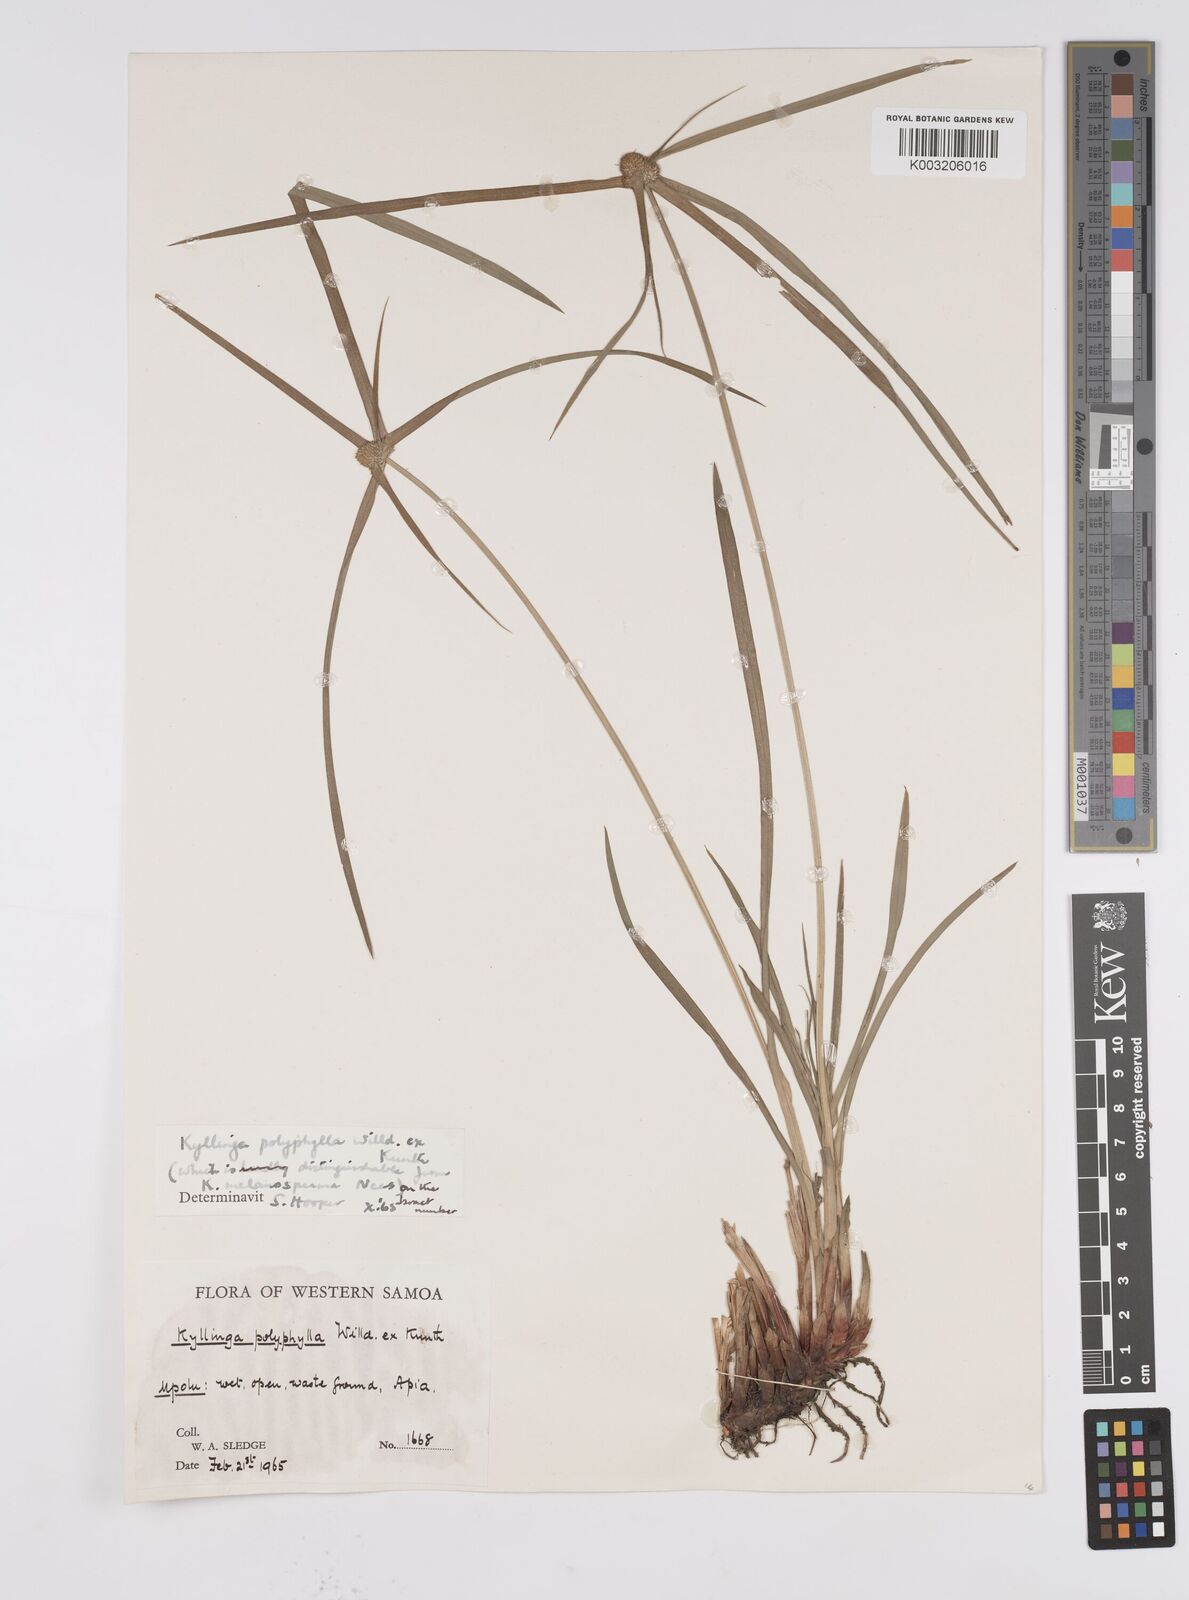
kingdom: Plantae
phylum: Tracheophyta
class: Liliopsida
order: Poales
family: Cyperaceae
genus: Cyperus
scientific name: Cyperus
